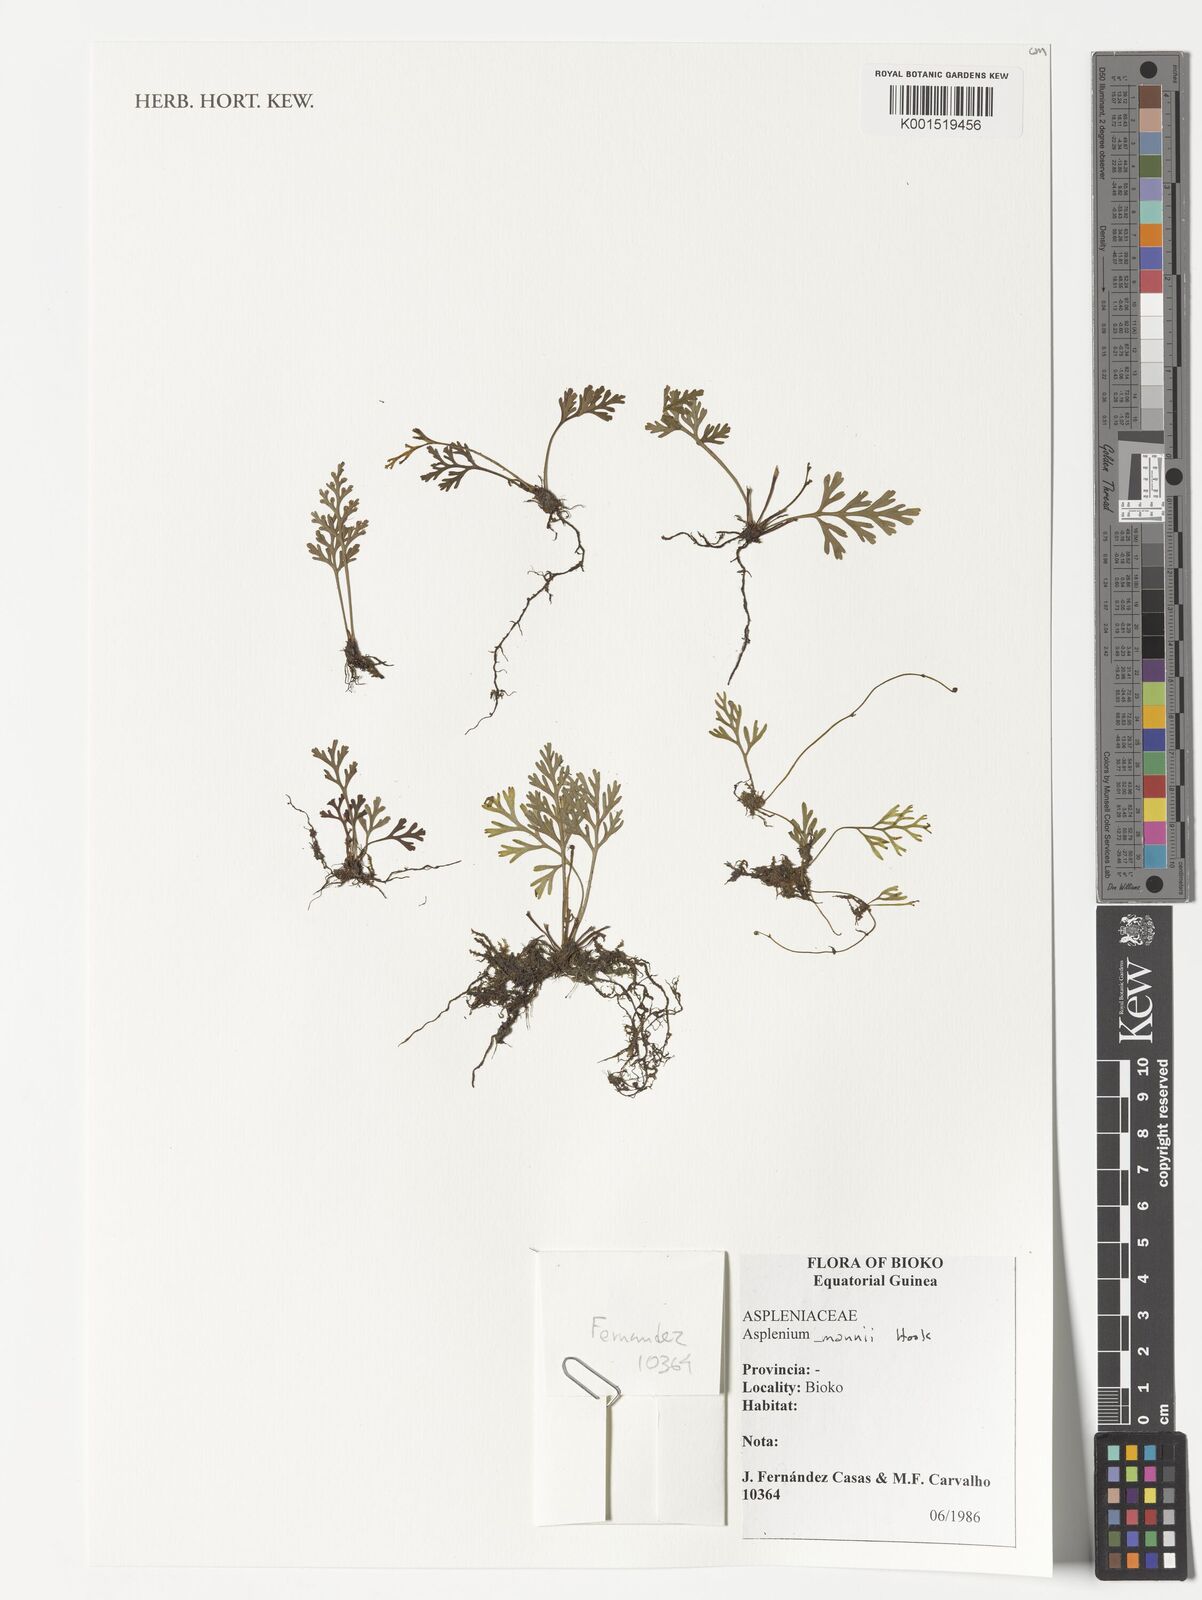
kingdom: Plantae
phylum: Tracheophyta
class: Polypodiopsida
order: Polypodiales
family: Aspleniaceae
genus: Asplenium
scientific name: Asplenium mannii
